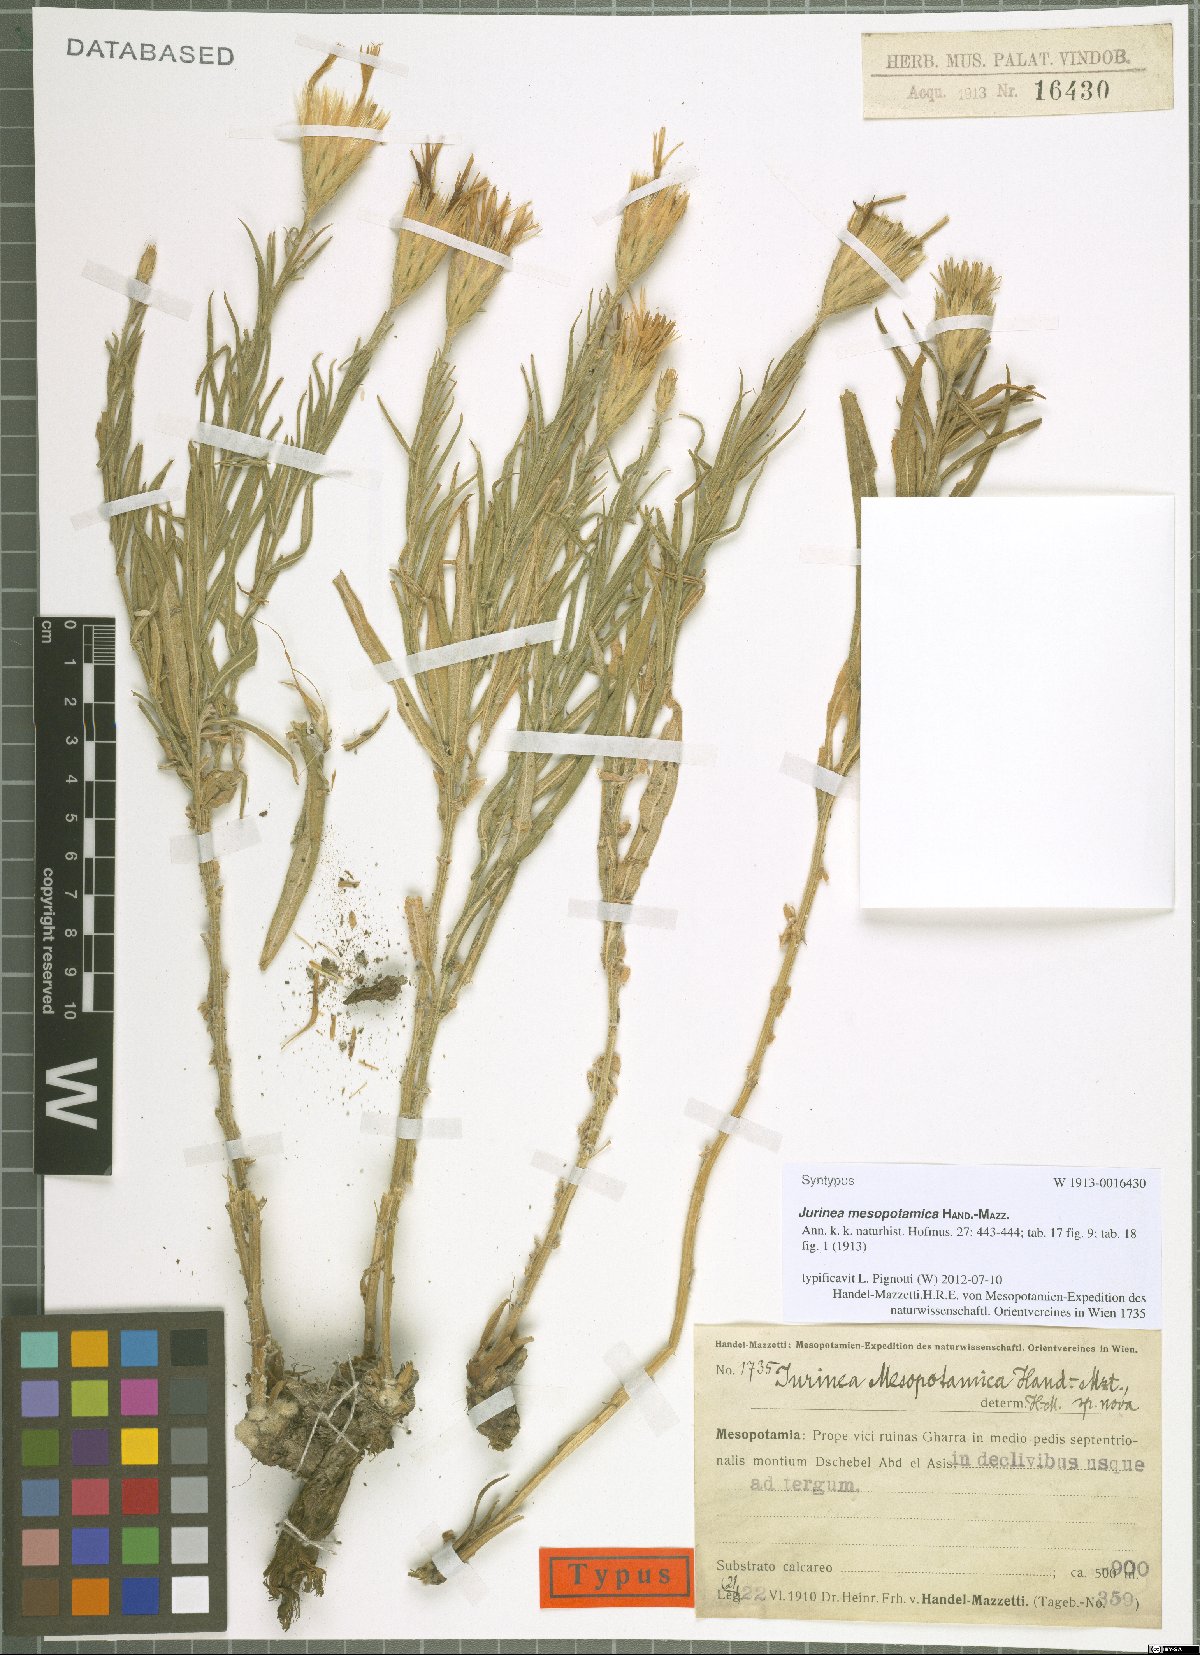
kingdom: Plantae
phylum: Tracheophyta
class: Magnoliopsida
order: Asterales
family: Asteraceae
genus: Jurinea
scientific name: Jurinea mesopotamica
